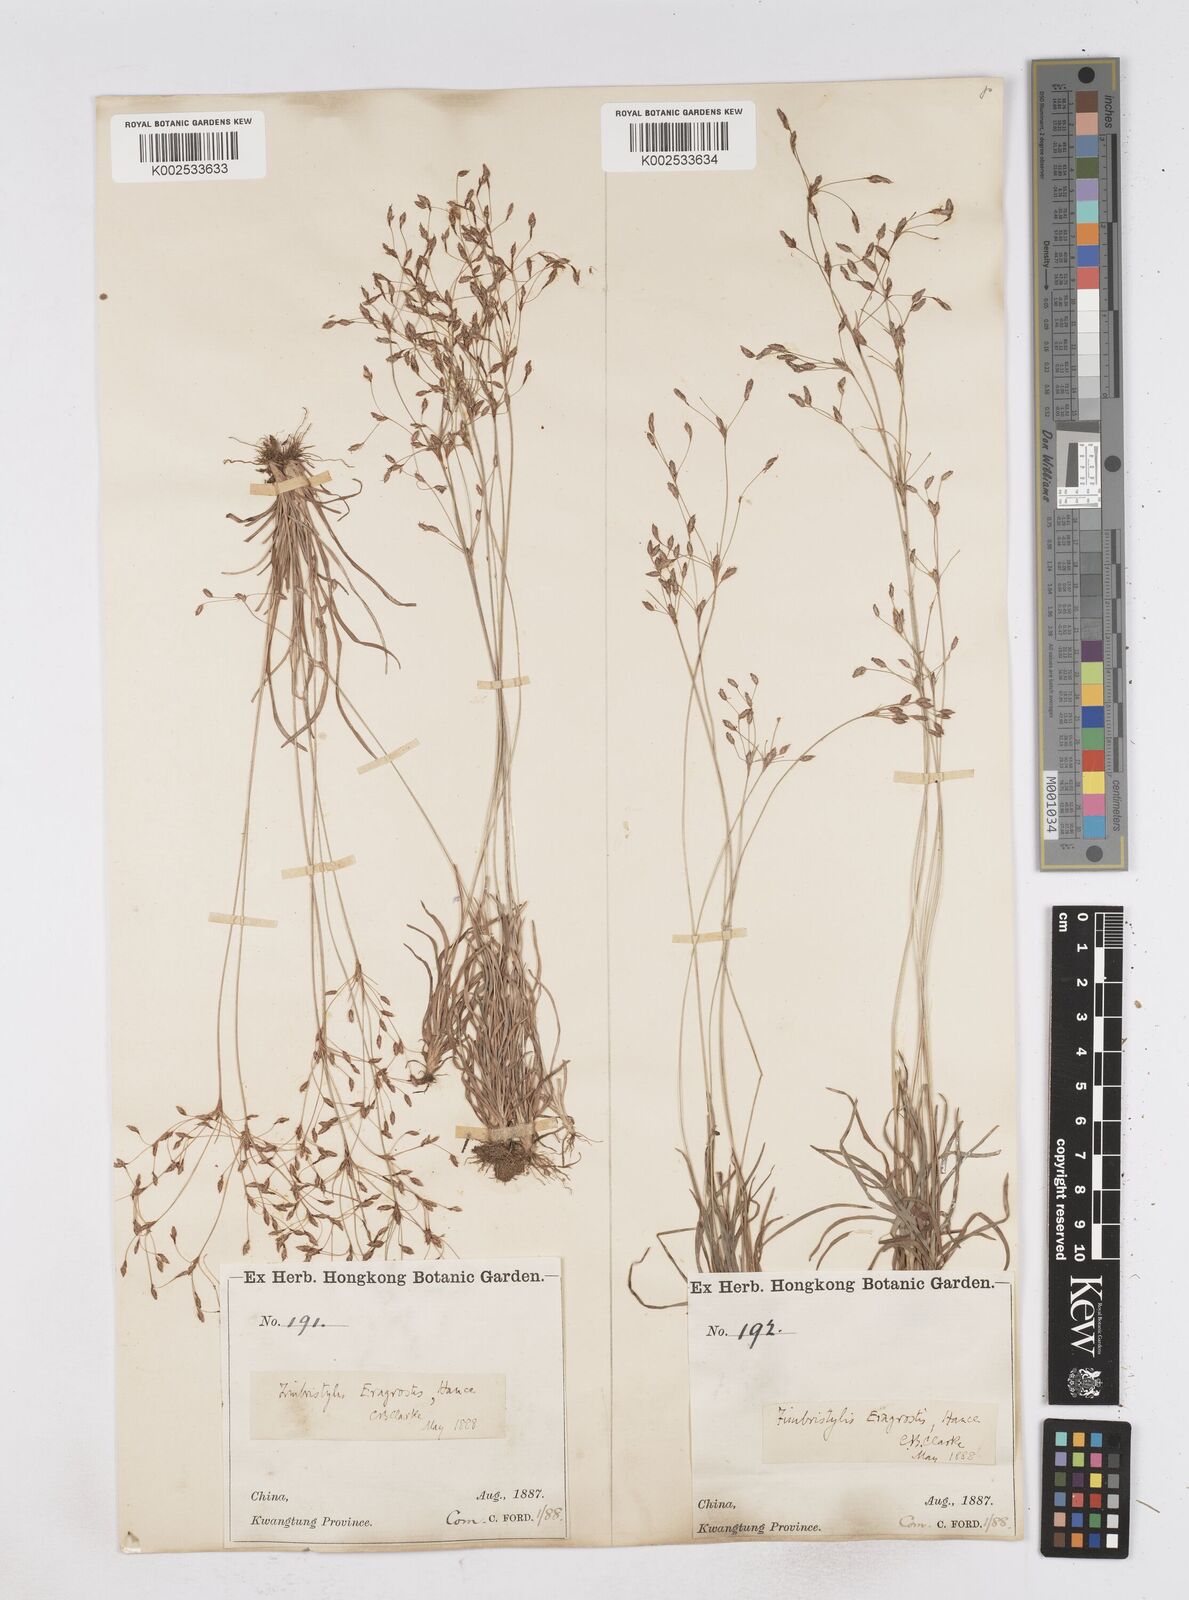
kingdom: Plantae
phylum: Tracheophyta
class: Liliopsida
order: Poales
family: Cyperaceae
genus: Fimbristylis
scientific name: Fimbristylis eragrostis
